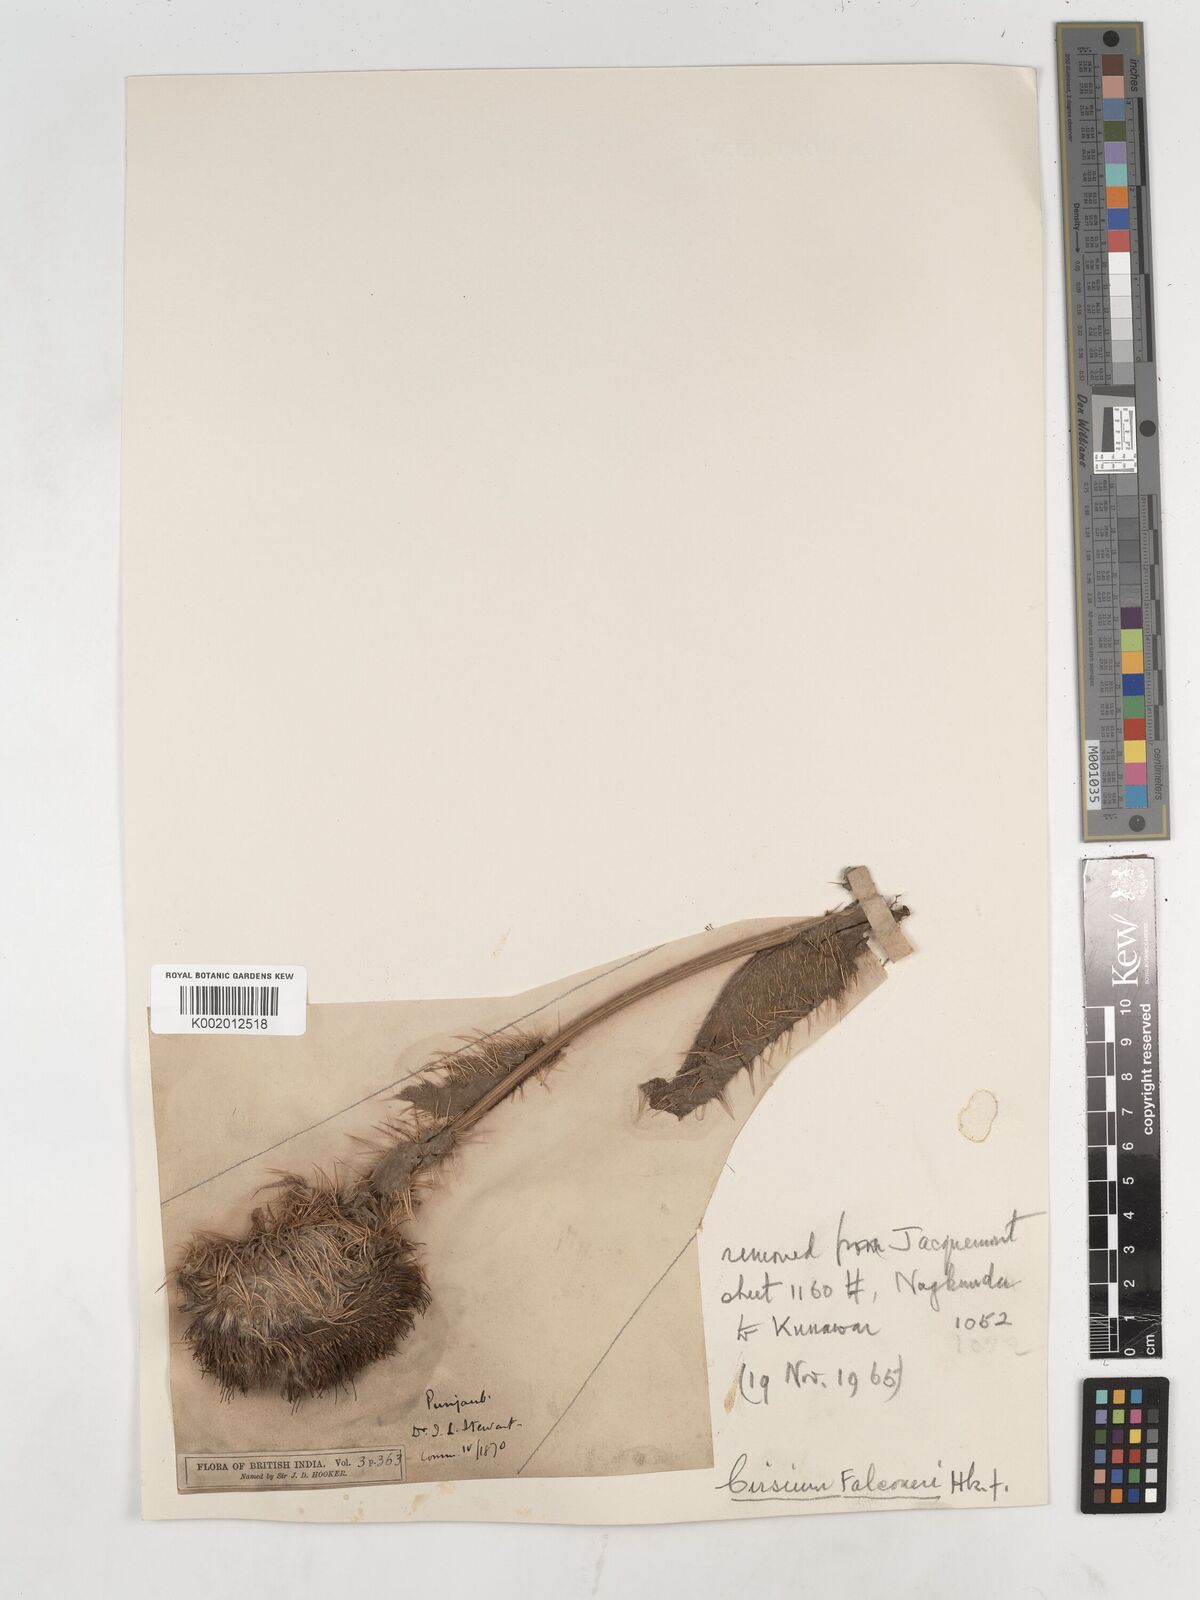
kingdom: Plantae
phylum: Tracheophyta
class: Magnoliopsida
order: Asterales
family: Asteraceae
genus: Cirsium
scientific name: Cirsium falconeri
